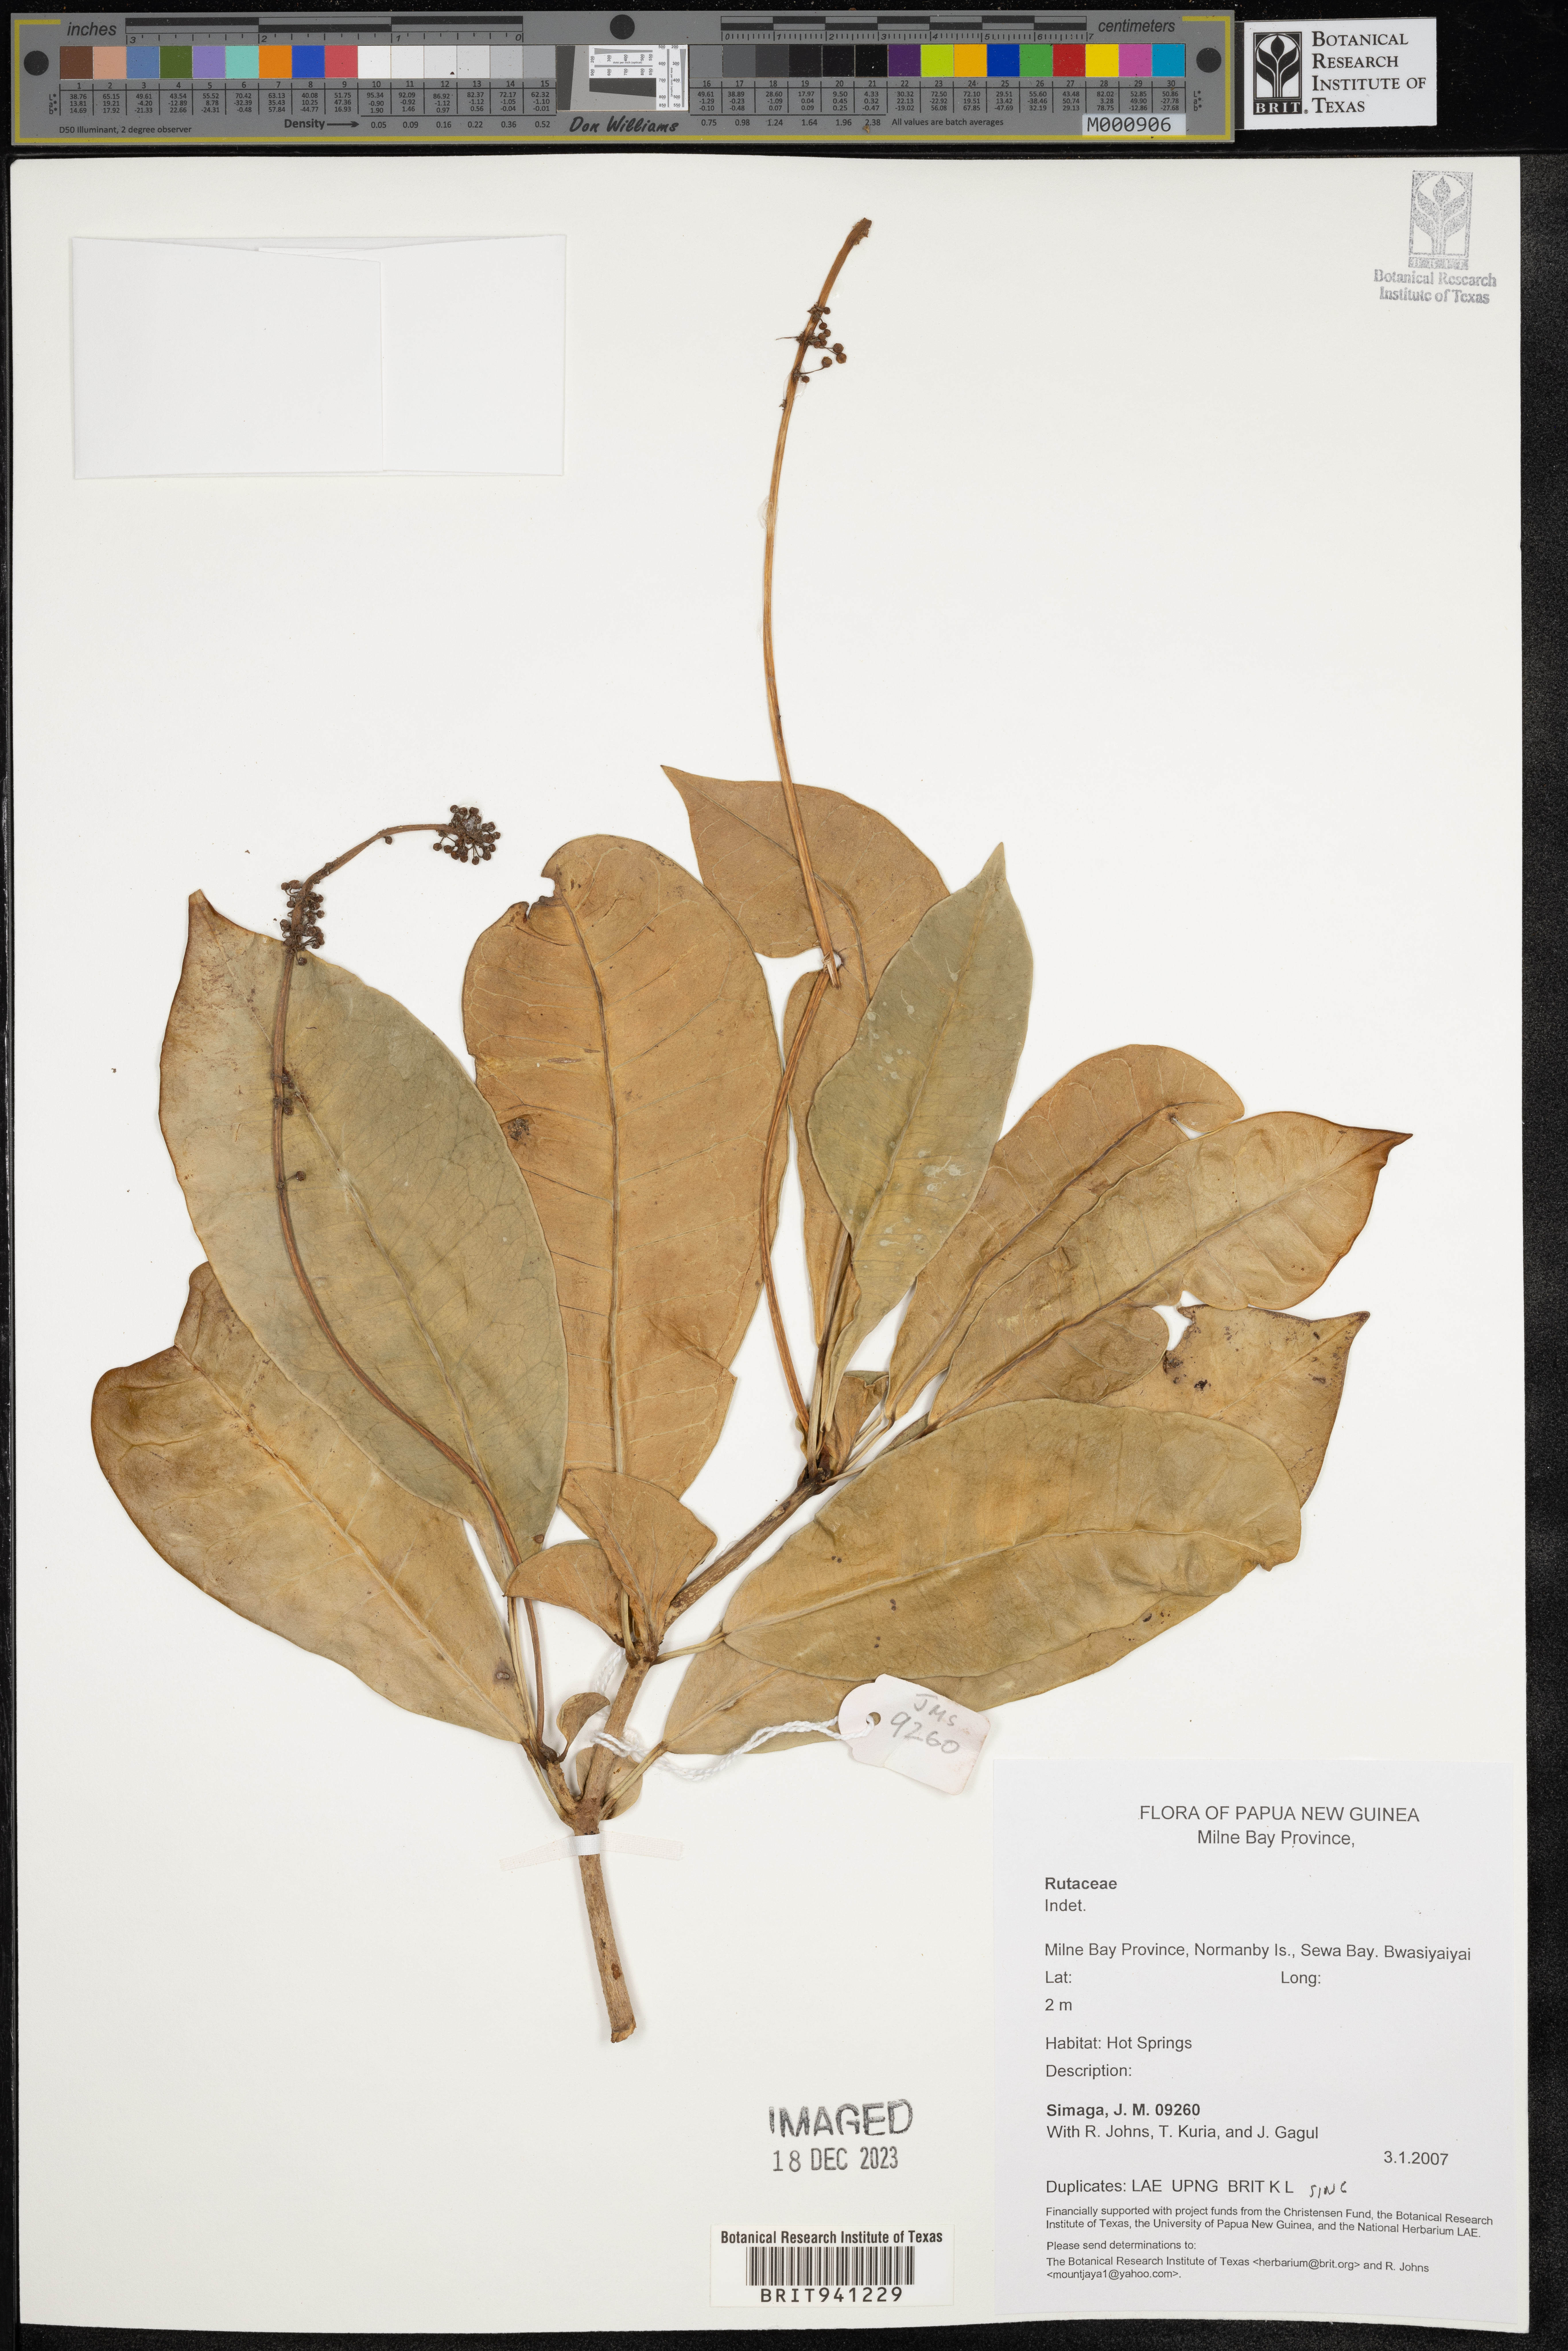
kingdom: Plantae
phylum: Tracheophyta
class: Magnoliopsida
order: Sapindales
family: Rutaceae
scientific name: Rutaceae
